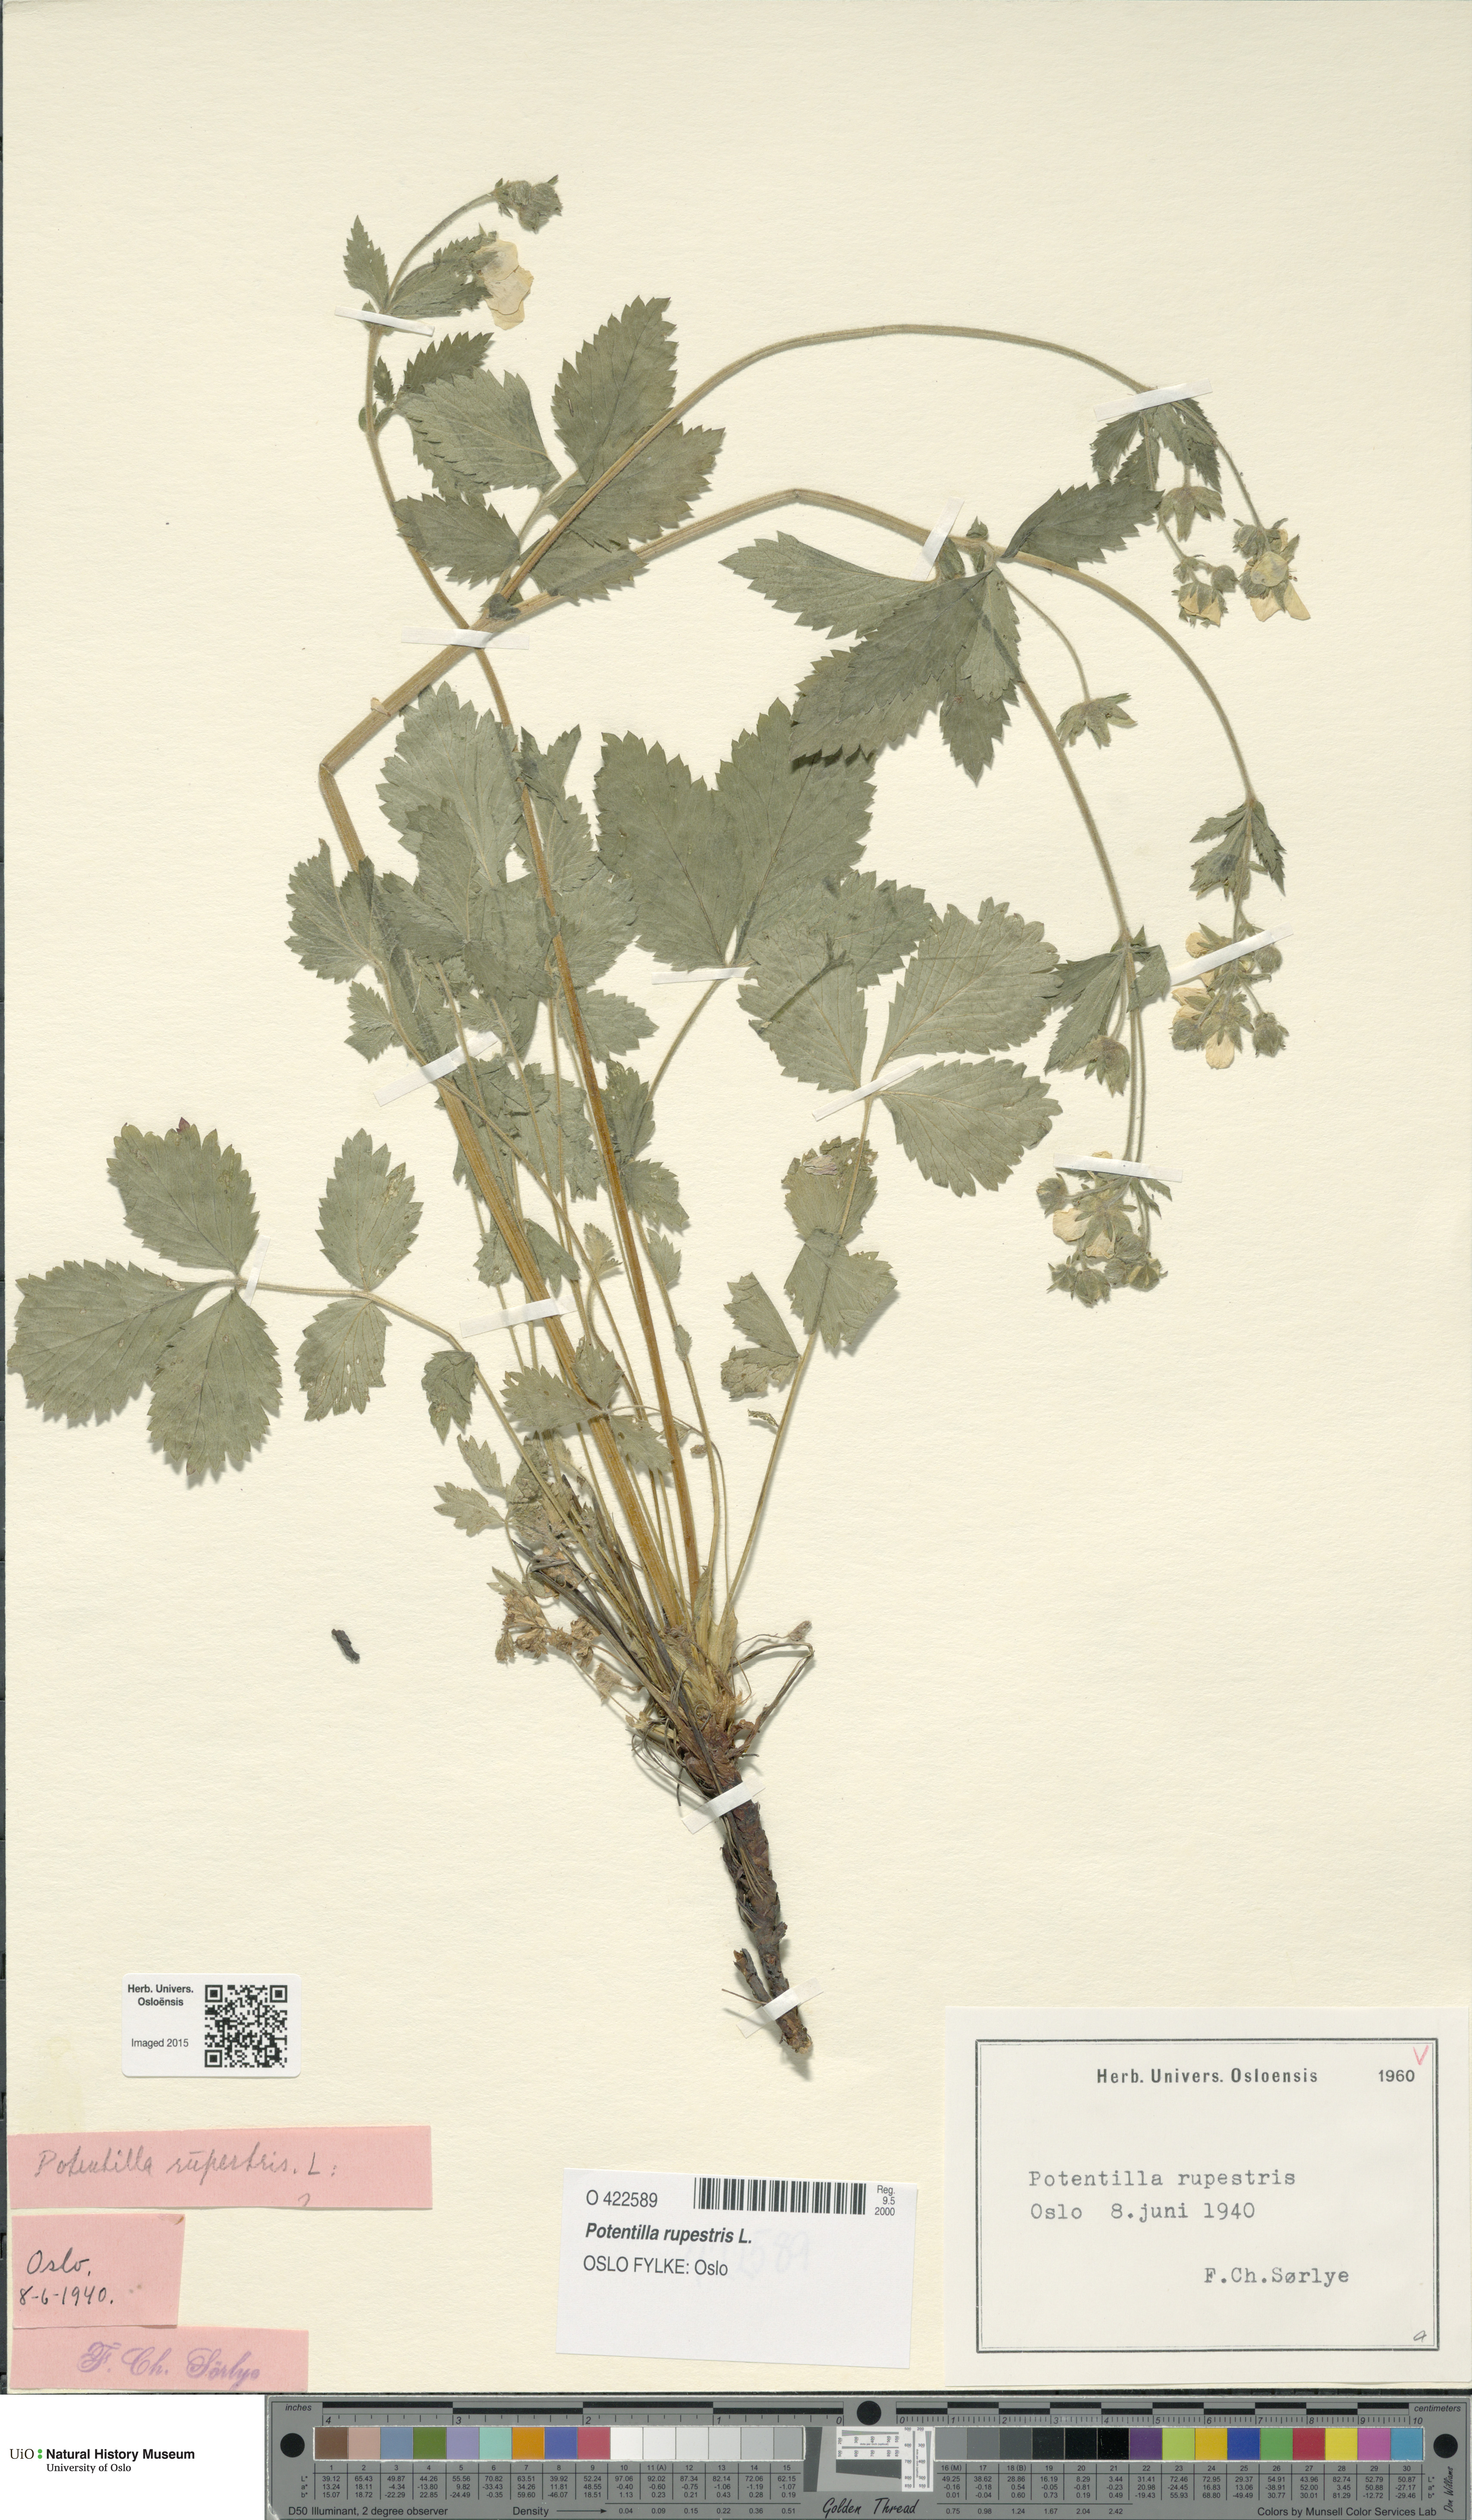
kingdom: Plantae
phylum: Tracheophyta
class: Magnoliopsida
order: Rosales
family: Rosaceae
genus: Drymocallis
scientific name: Drymocallis rupestris
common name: Rock cinquefoil
